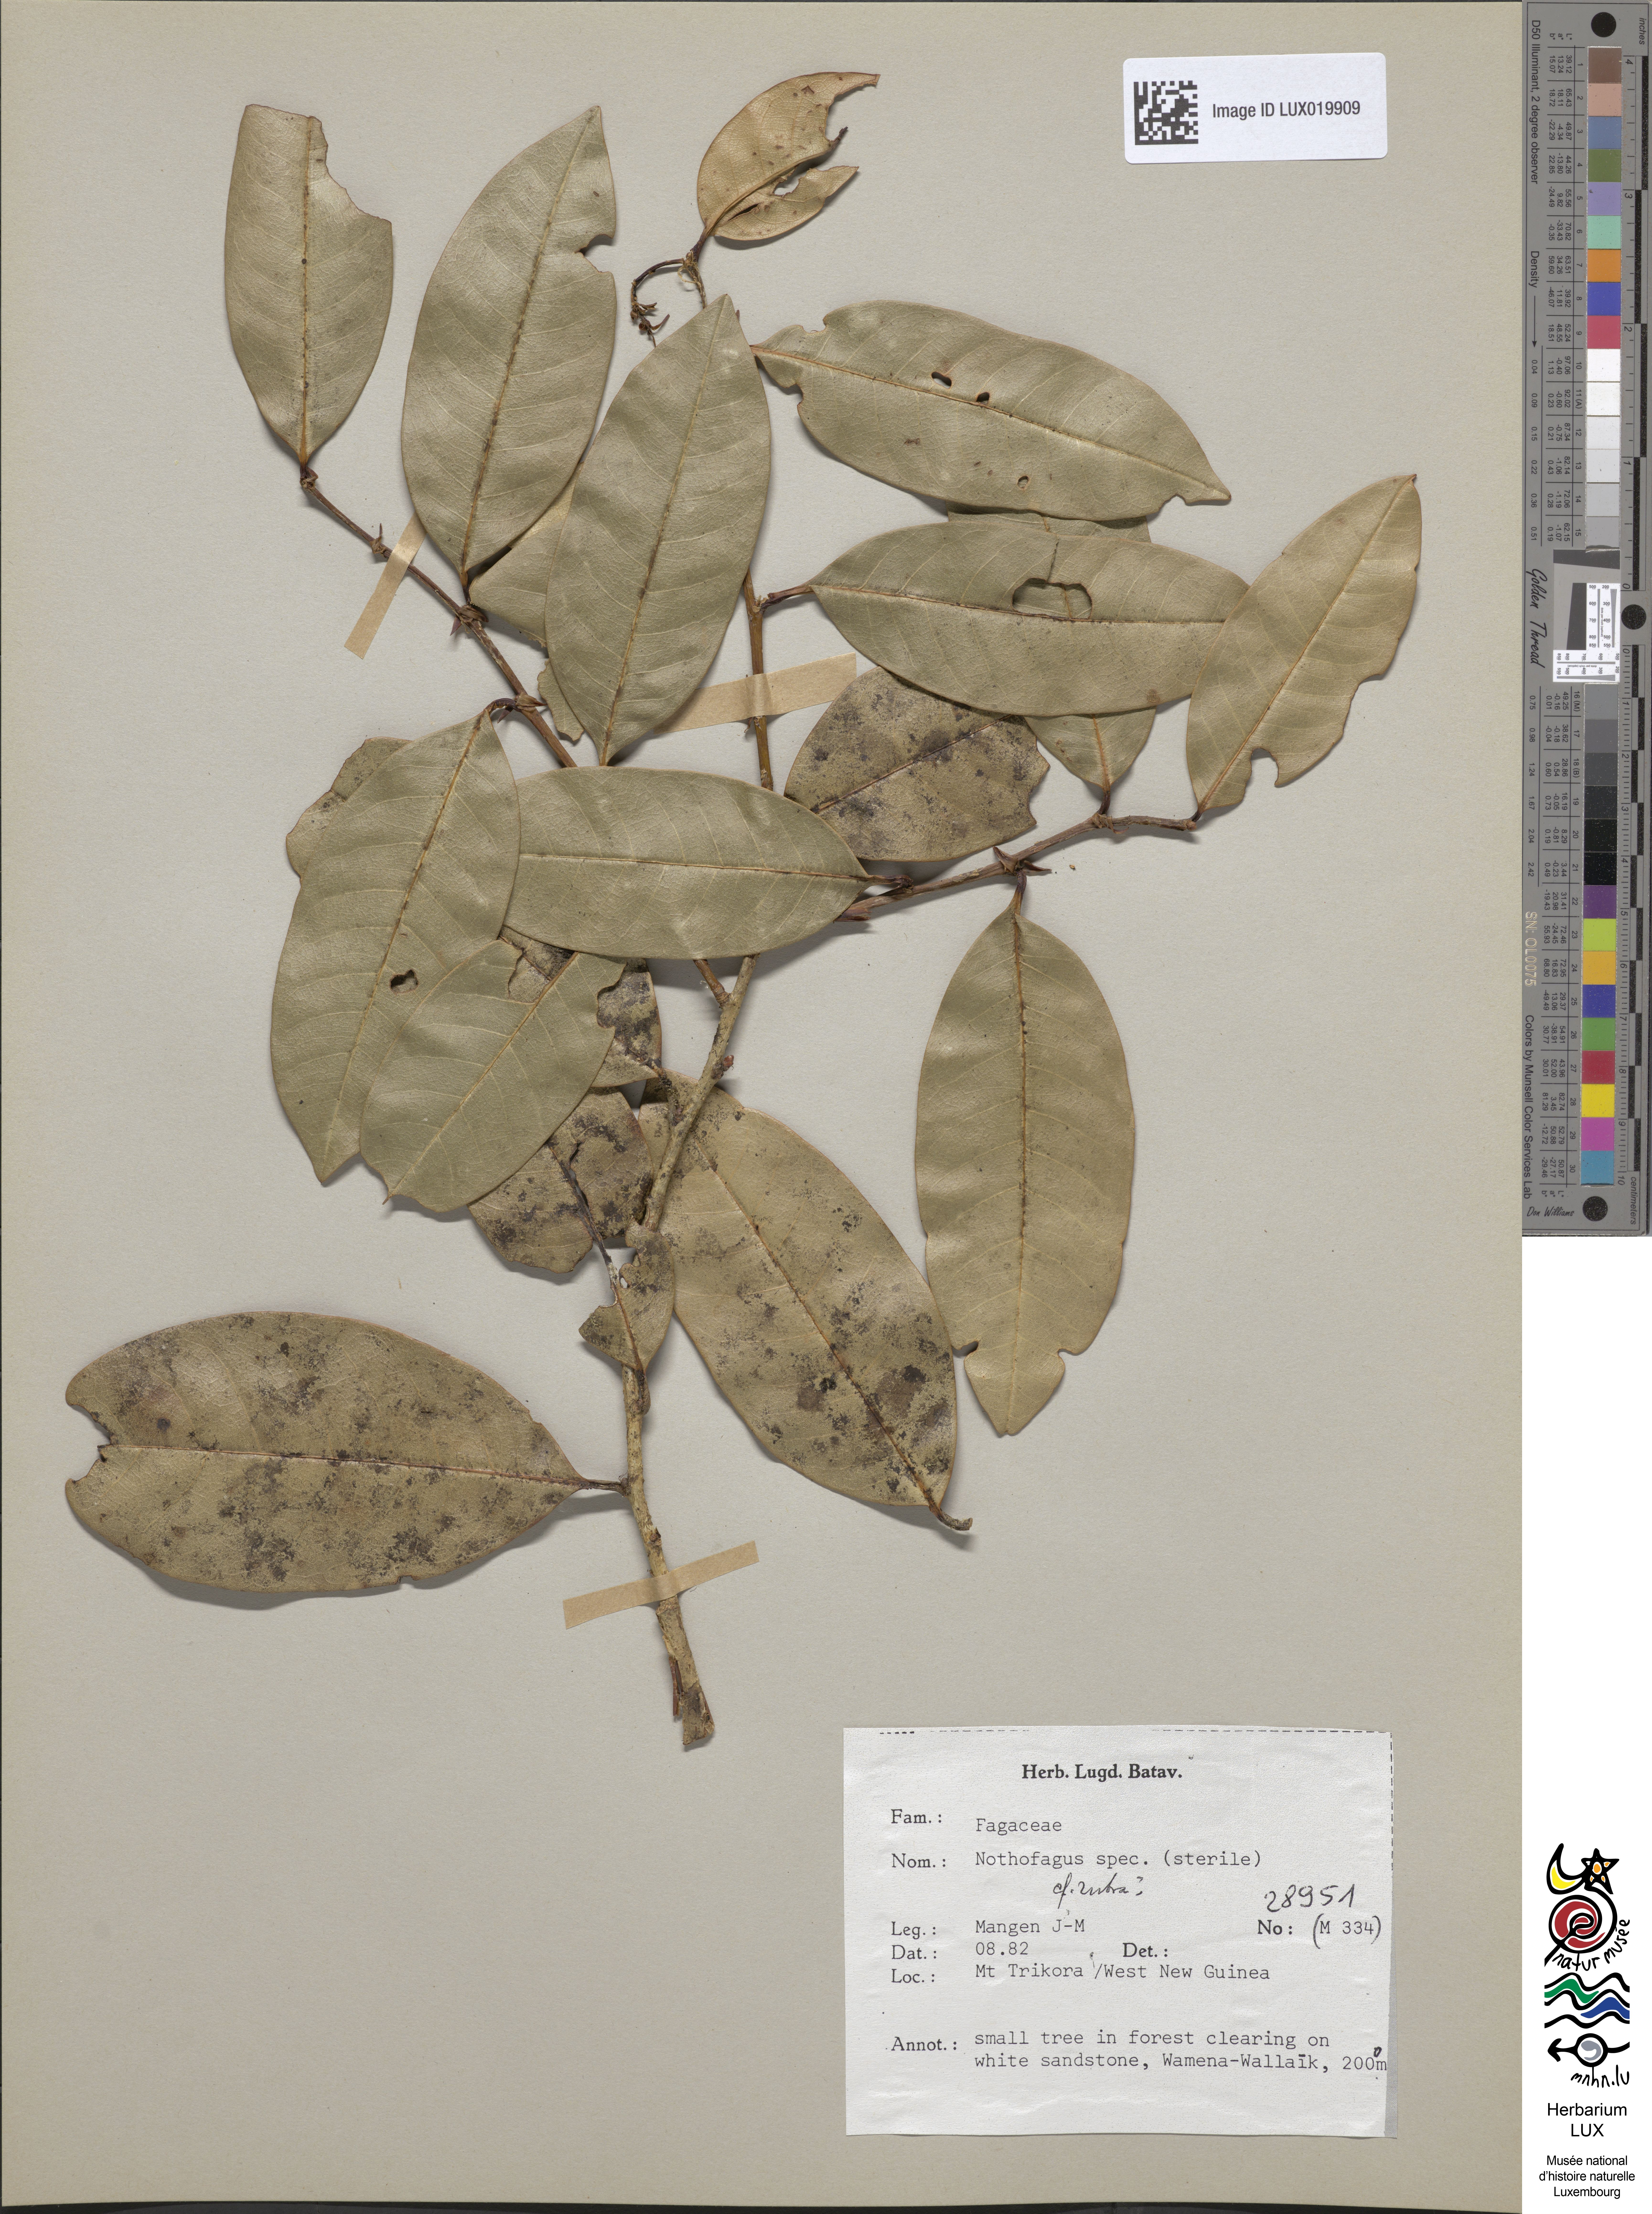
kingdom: Plantae
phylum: Tracheophyta
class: Magnoliopsida
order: Fagales
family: Nothofagaceae
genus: Nothofagus
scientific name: Nothofagus
